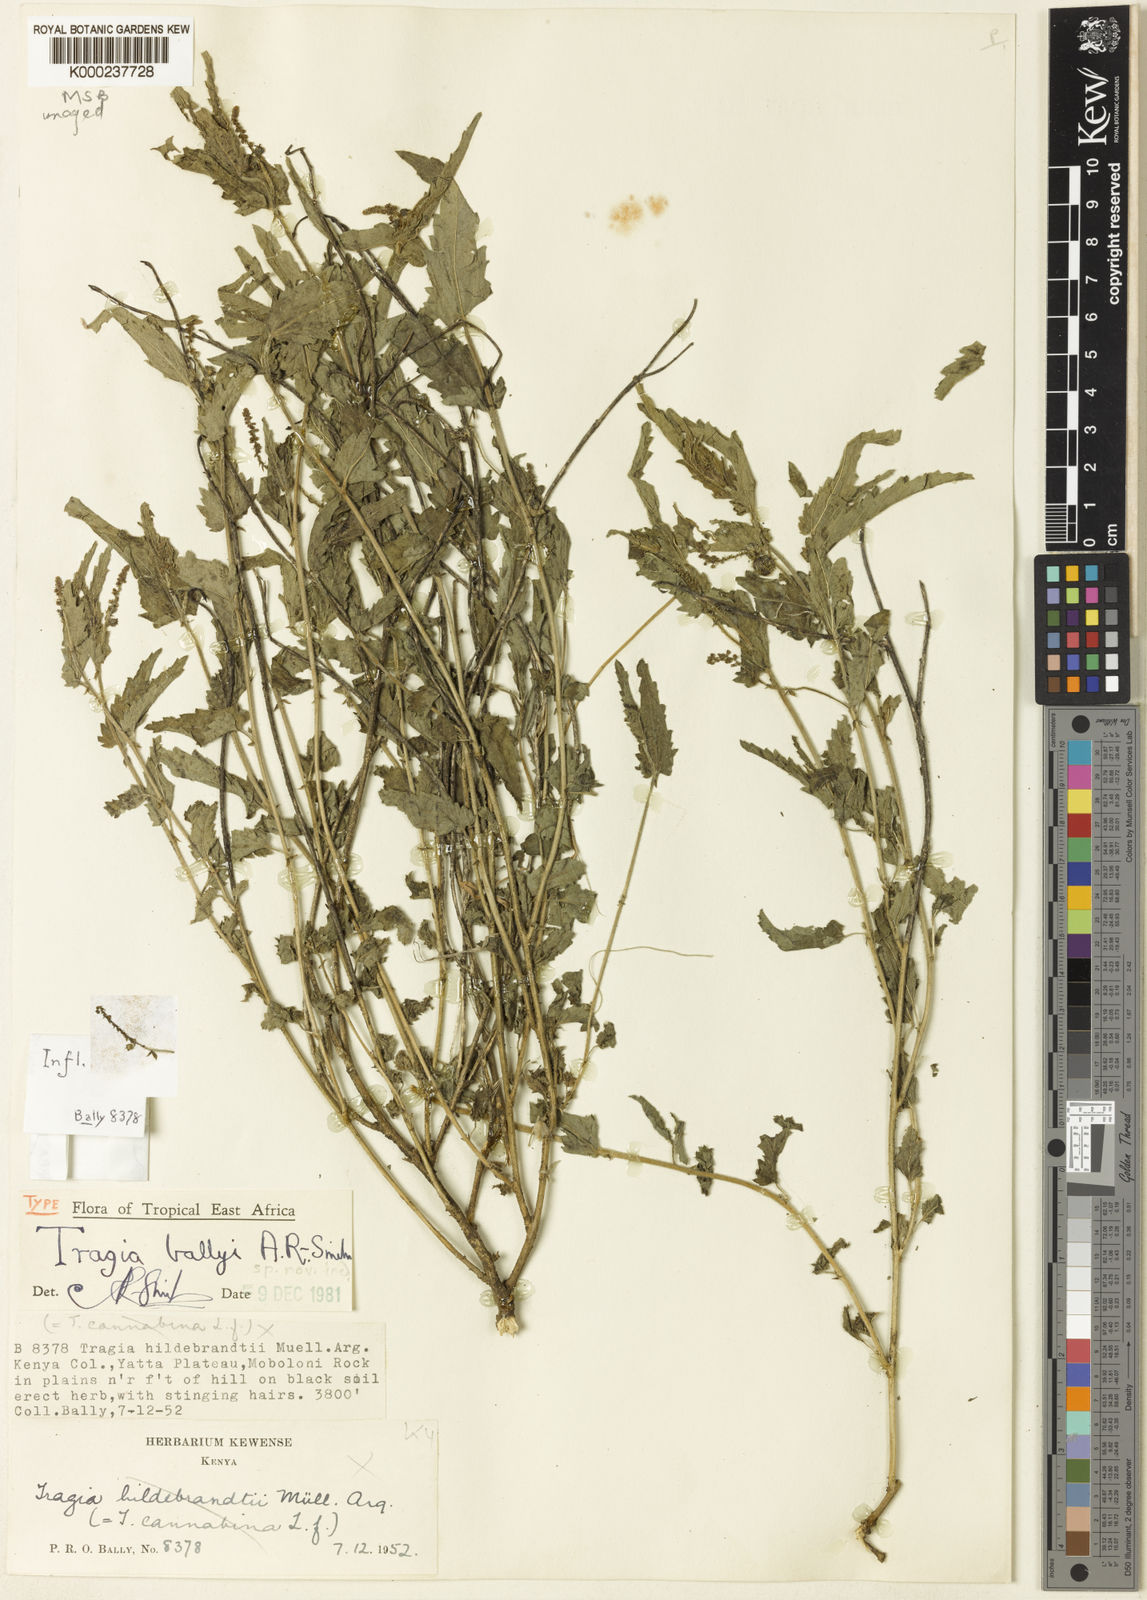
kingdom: Plantae
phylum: Tracheophyta
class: Magnoliopsida
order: Malpighiales
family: Euphorbiaceae
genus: Tragia
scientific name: Tragia
